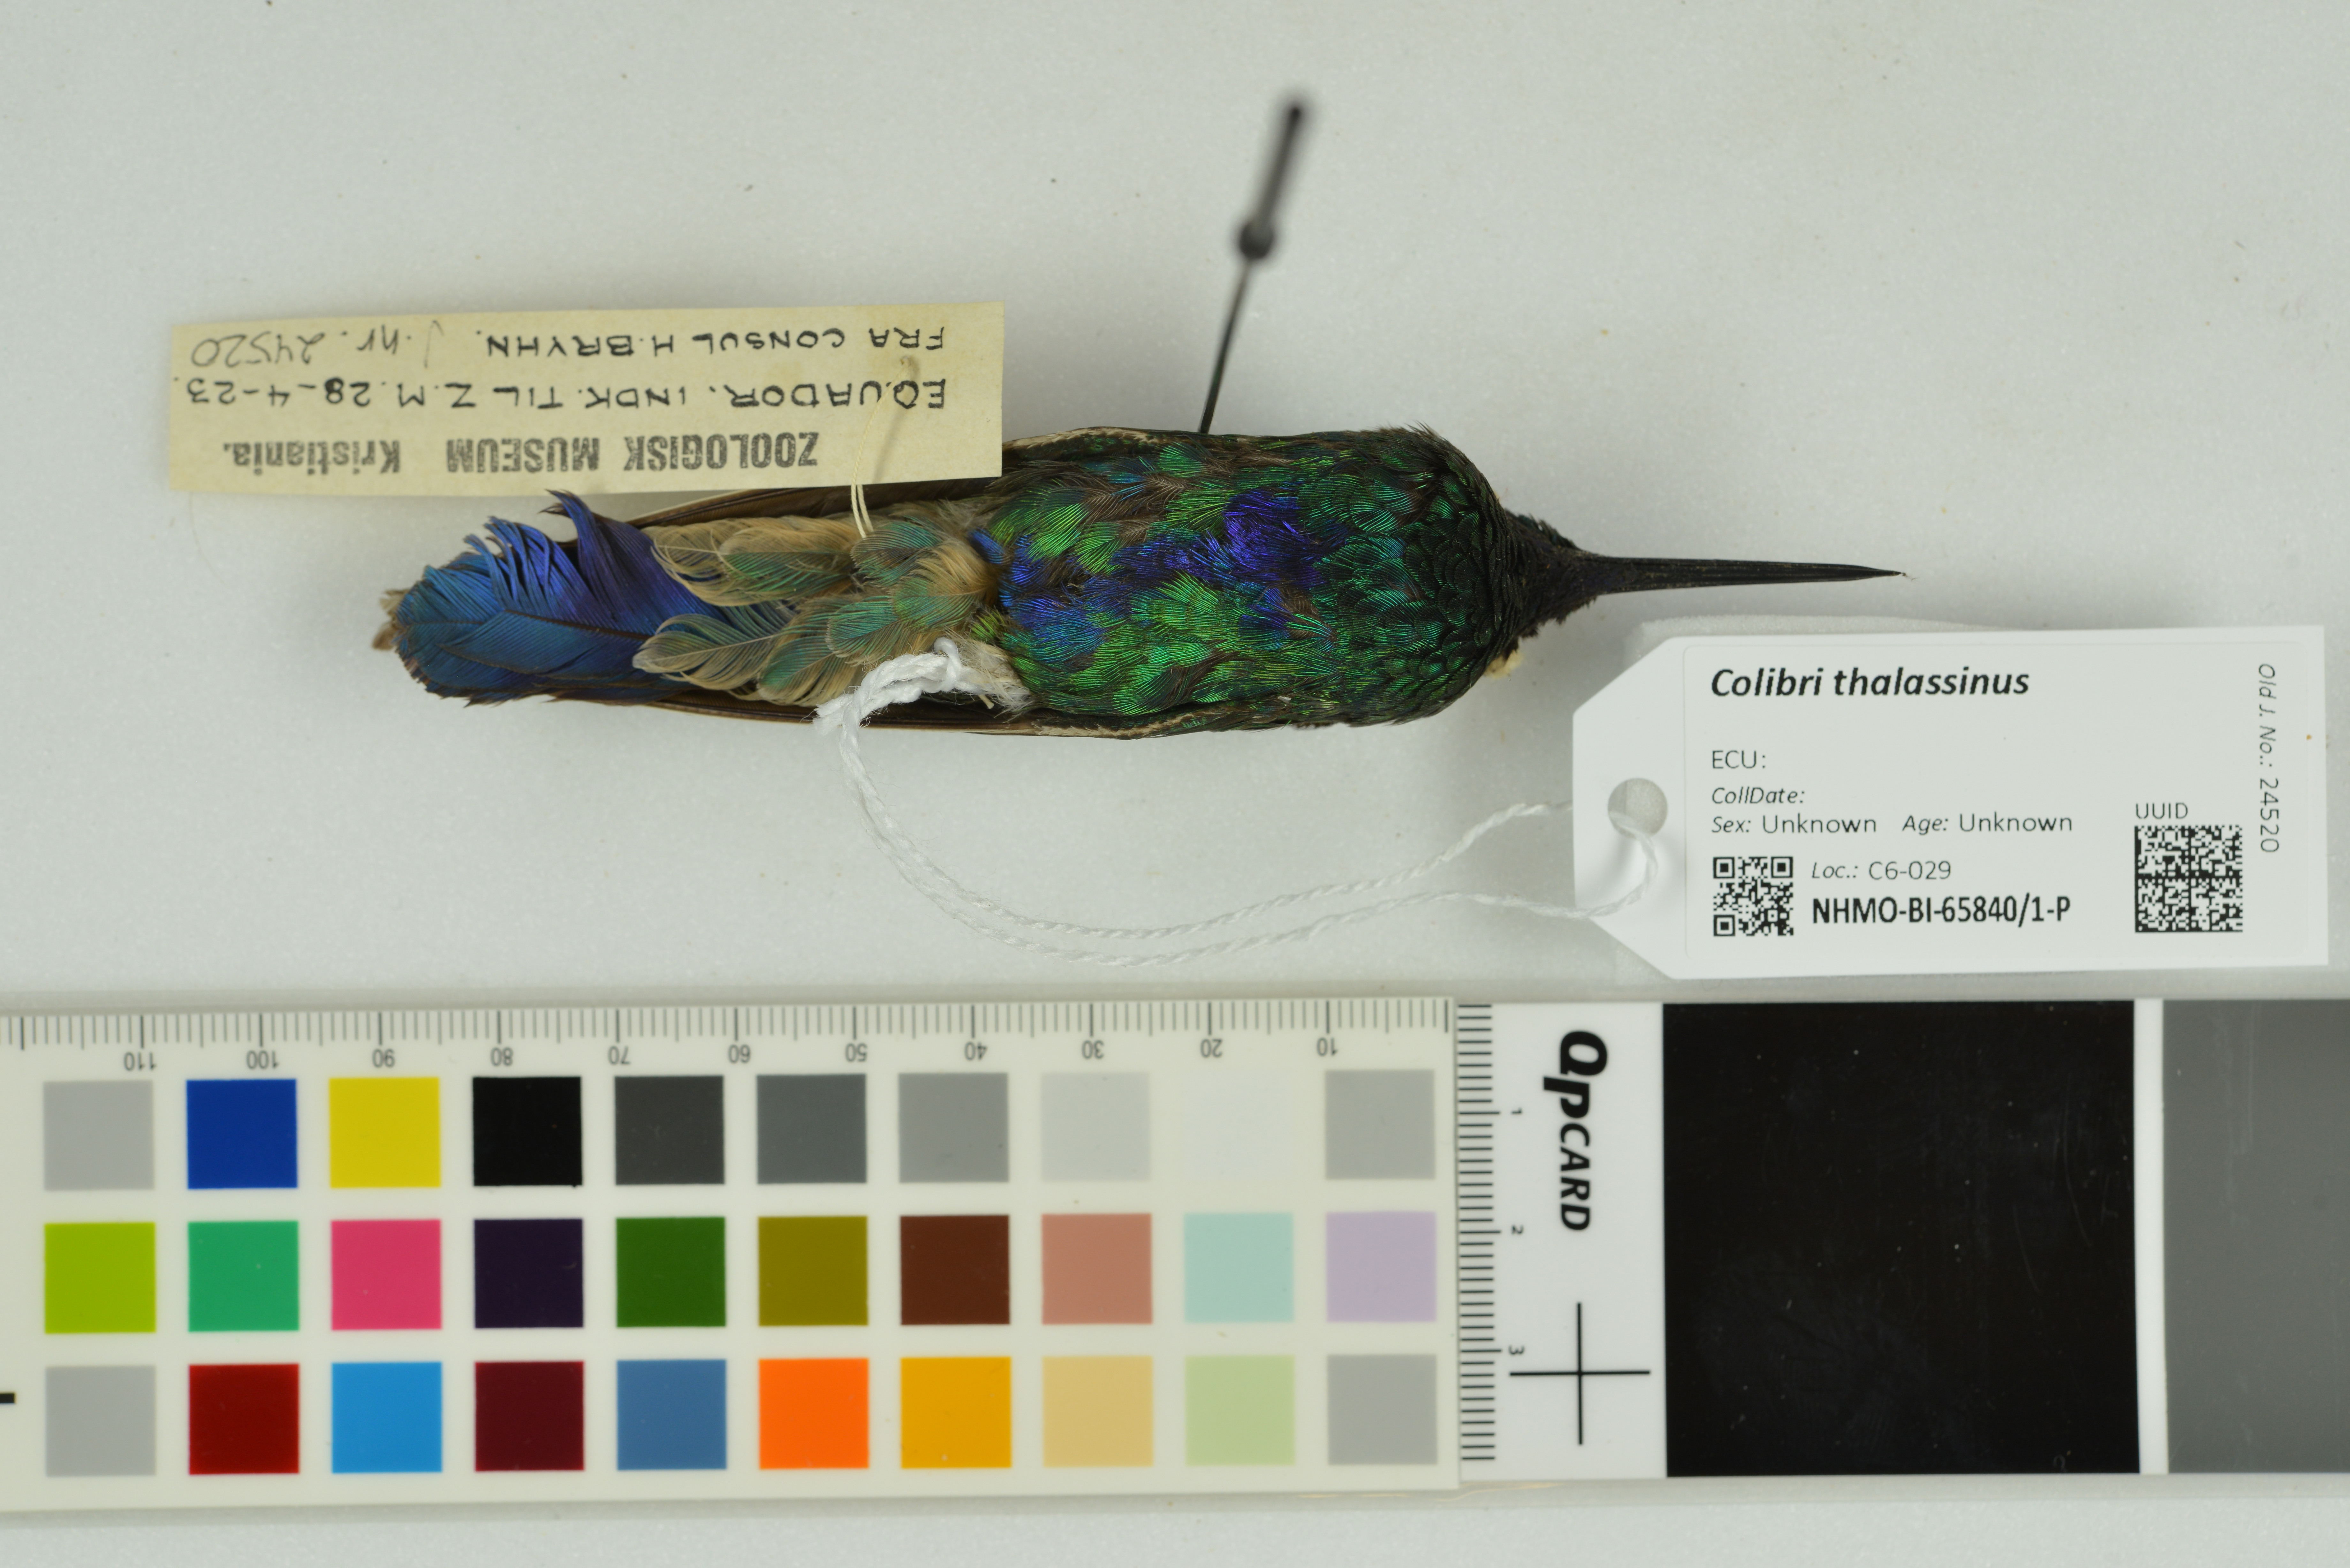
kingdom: Animalia
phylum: Chordata
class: Aves
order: Apodiformes
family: Trochilidae
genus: Colibri
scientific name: Colibri thalassinus
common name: Green violetear
